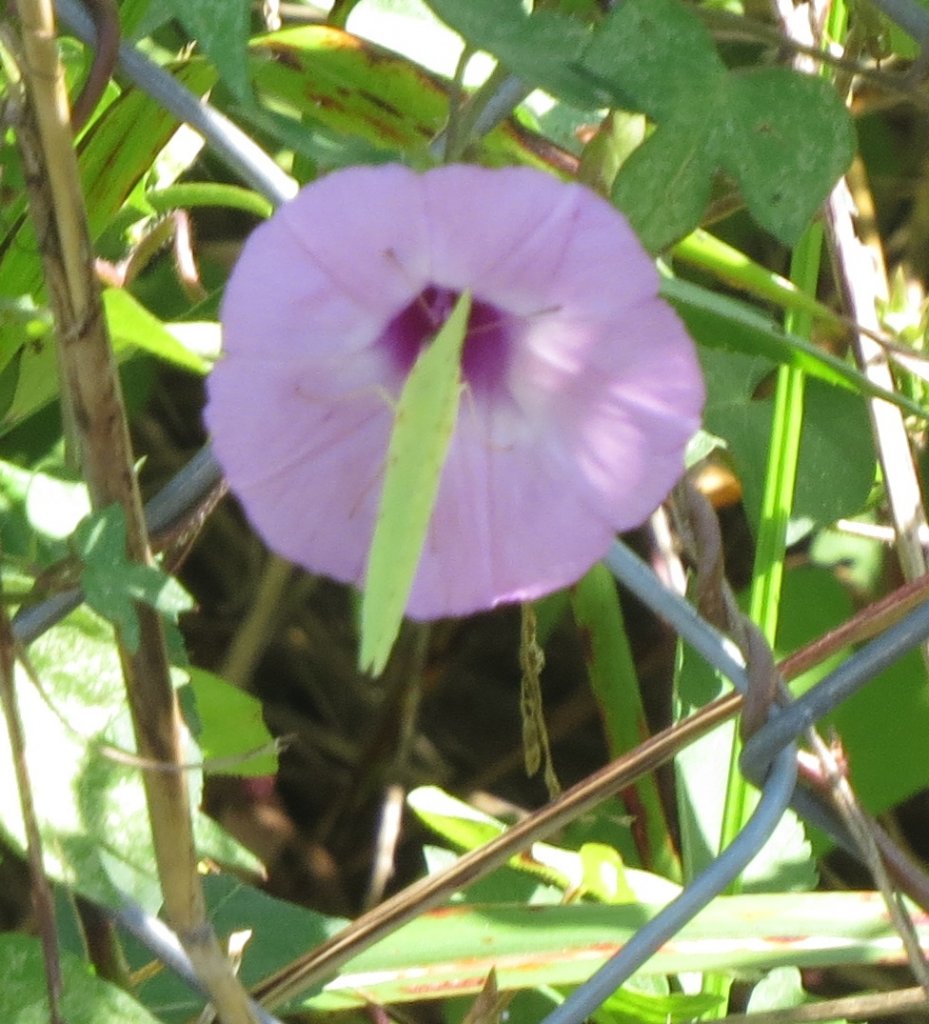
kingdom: Animalia
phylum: Arthropoda
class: Insecta
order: Lepidoptera
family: Pieridae
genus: Phoebis
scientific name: Phoebis sennae
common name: Cloudless Sulphur
